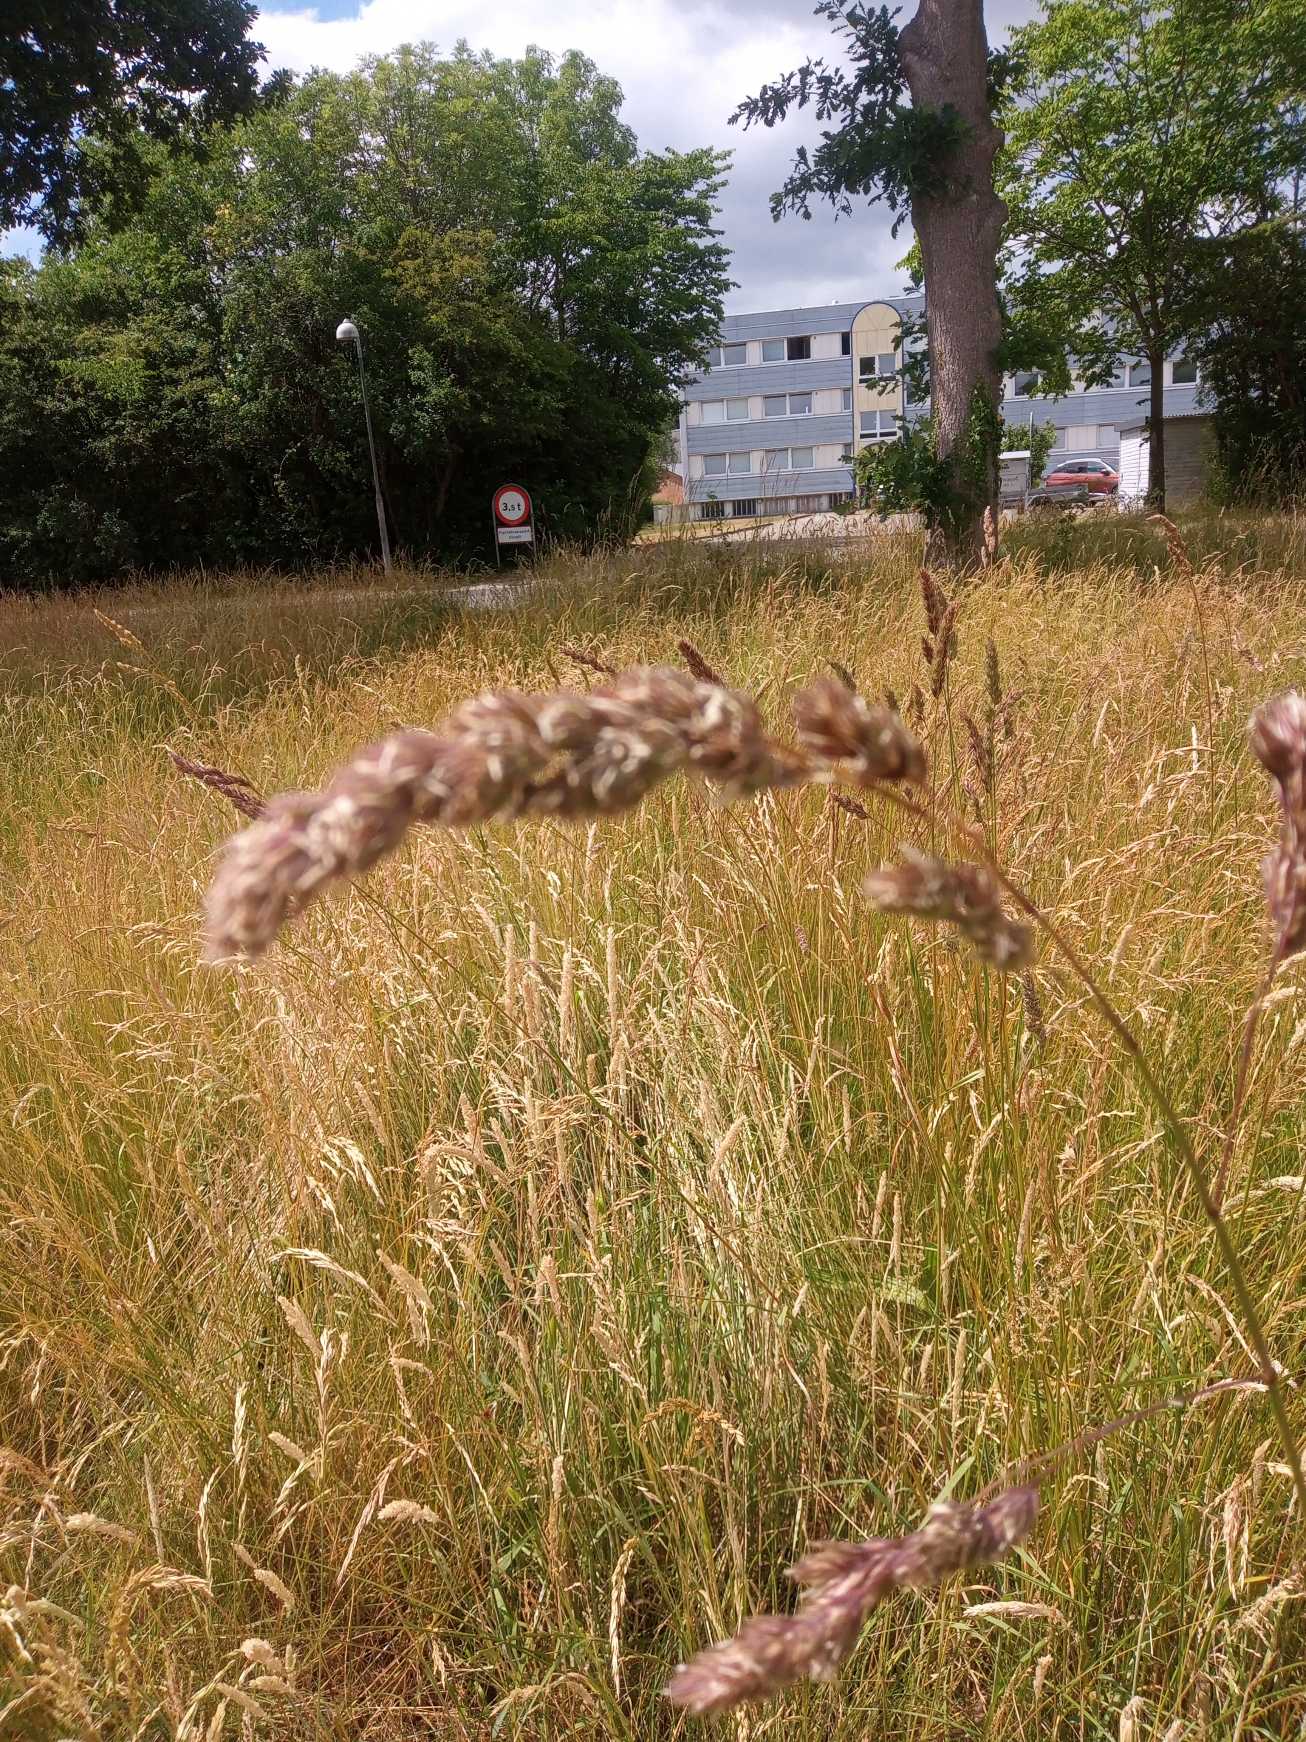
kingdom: Plantae
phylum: Tracheophyta
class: Liliopsida
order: Poales
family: Poaceae
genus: Dactylis
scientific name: Dactylis glomerata
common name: Almindelig hundegræs
